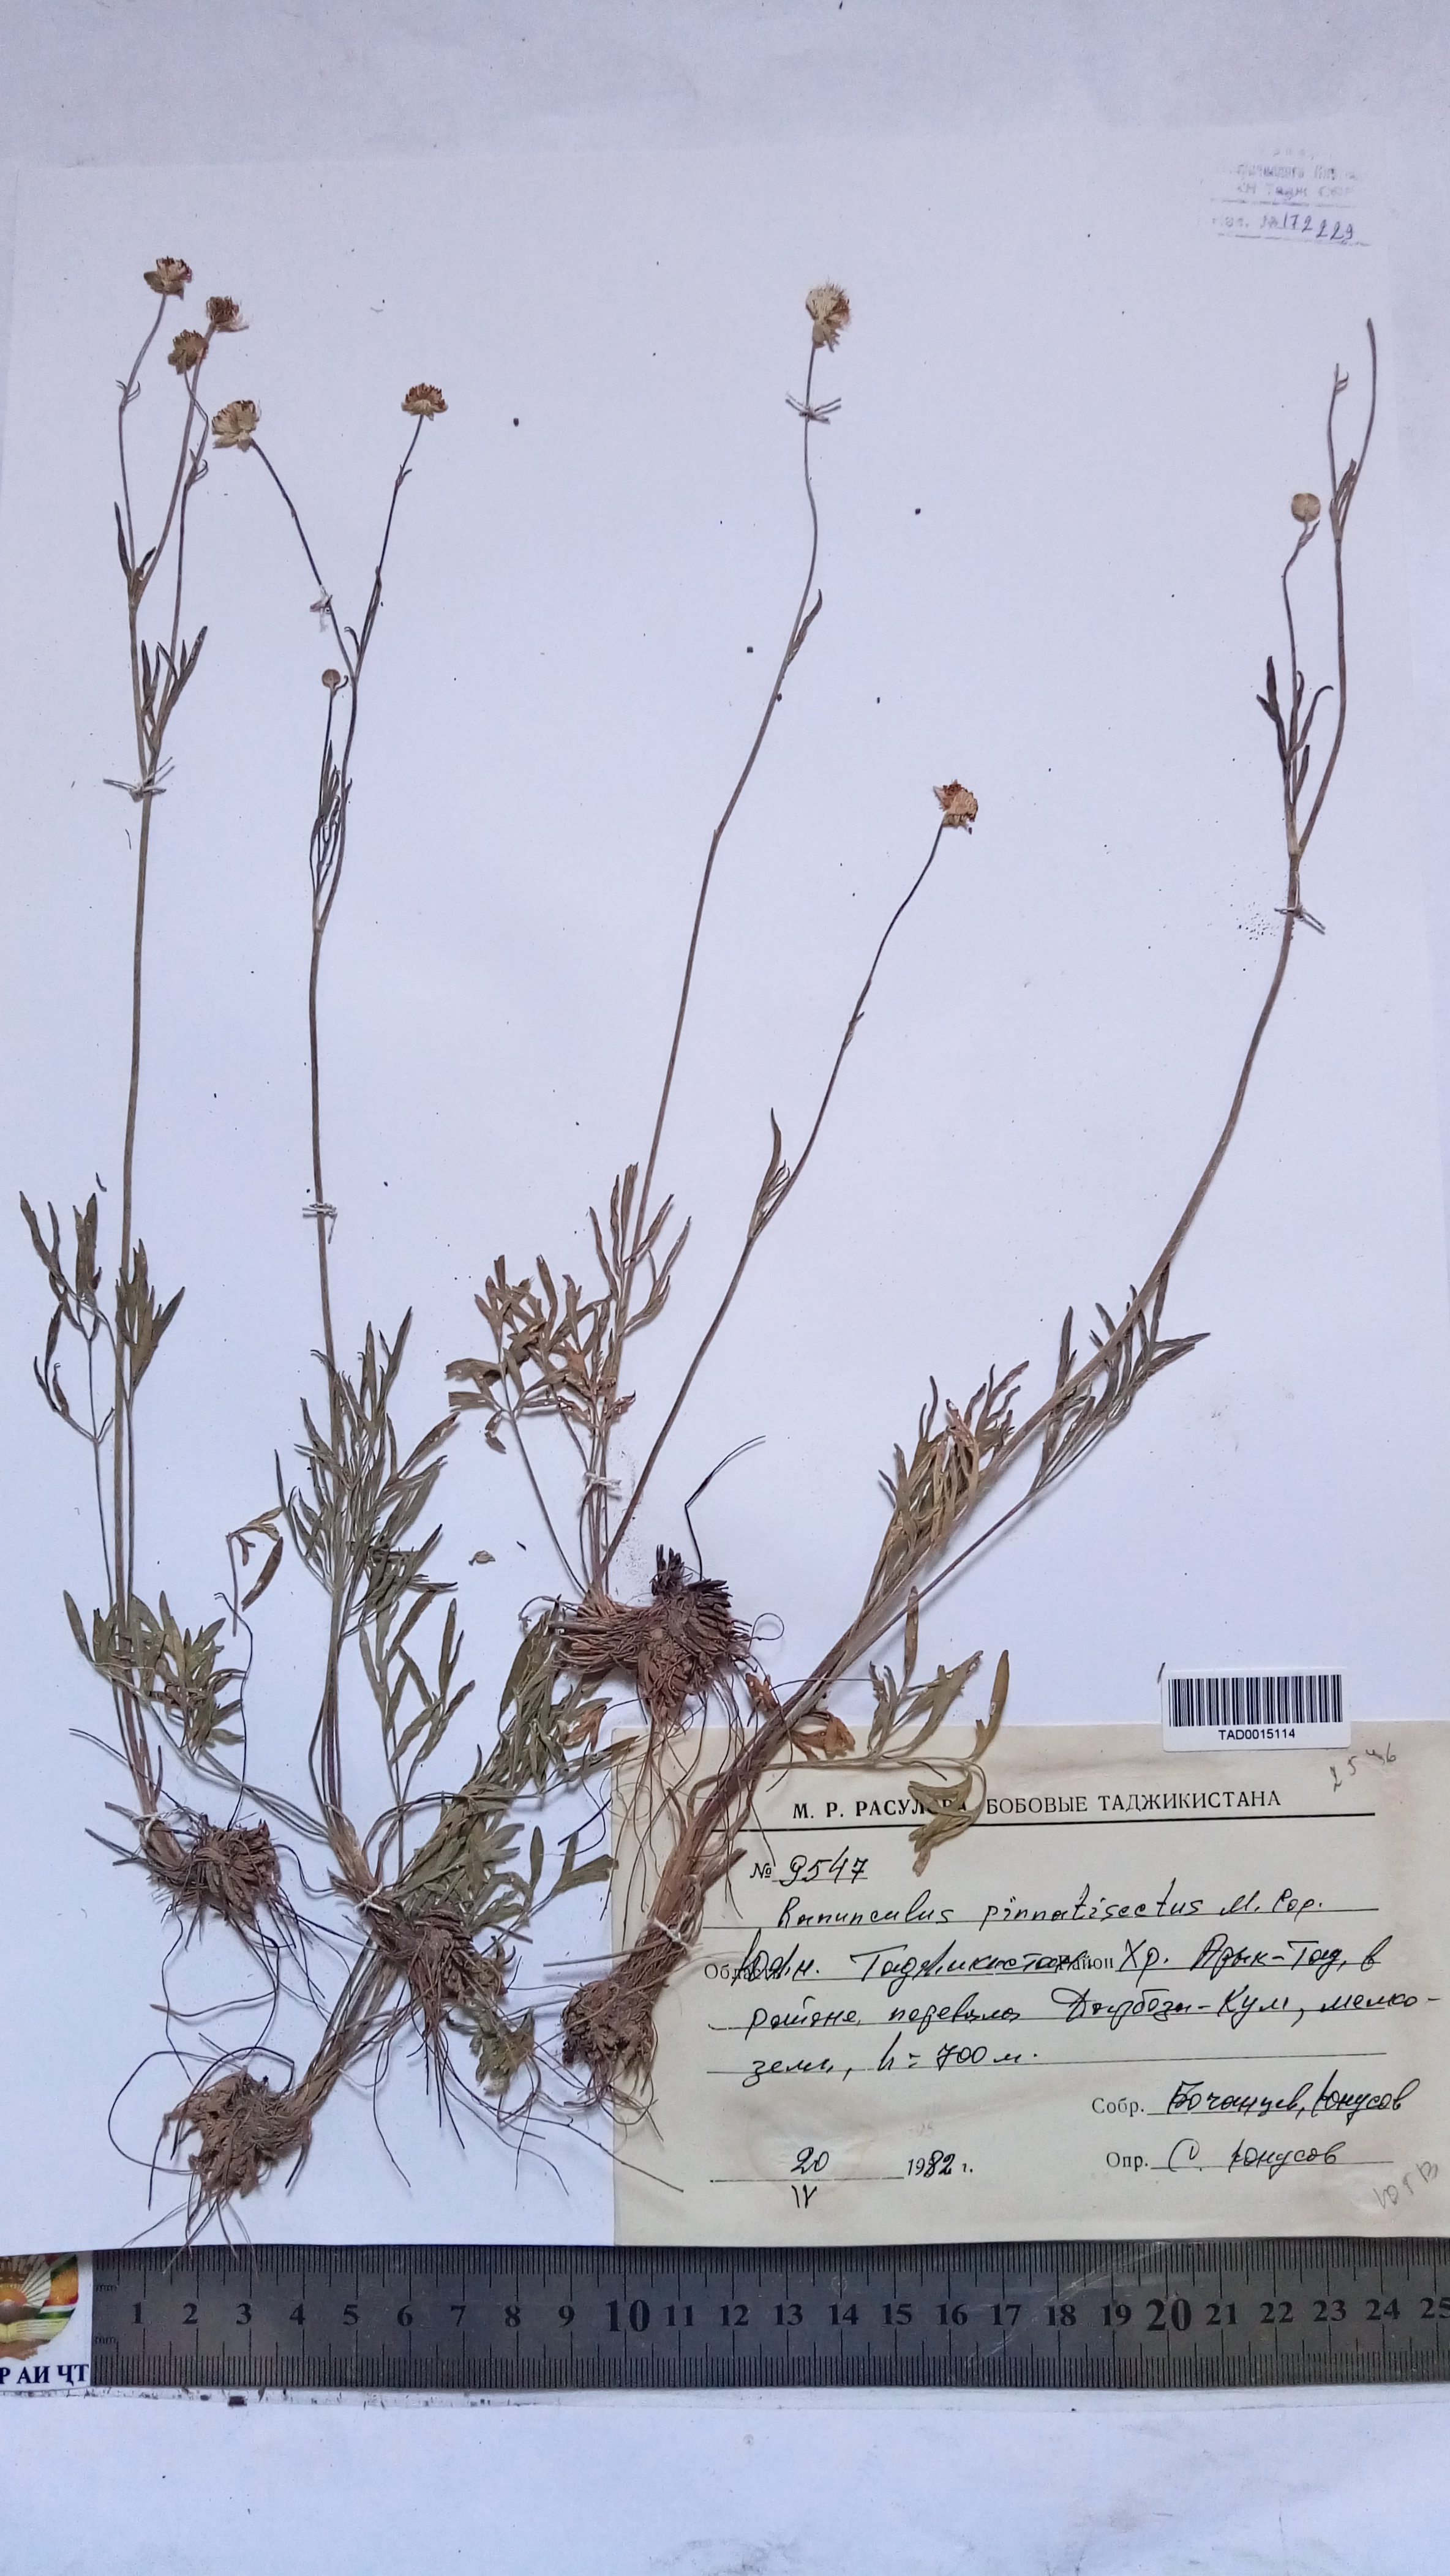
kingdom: Plantae
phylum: Tracheophyta
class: Magnoliopsida
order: Ranunculales
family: Ranunculaceae
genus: Ranunculus
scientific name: Ranunculus pinnatisectus
